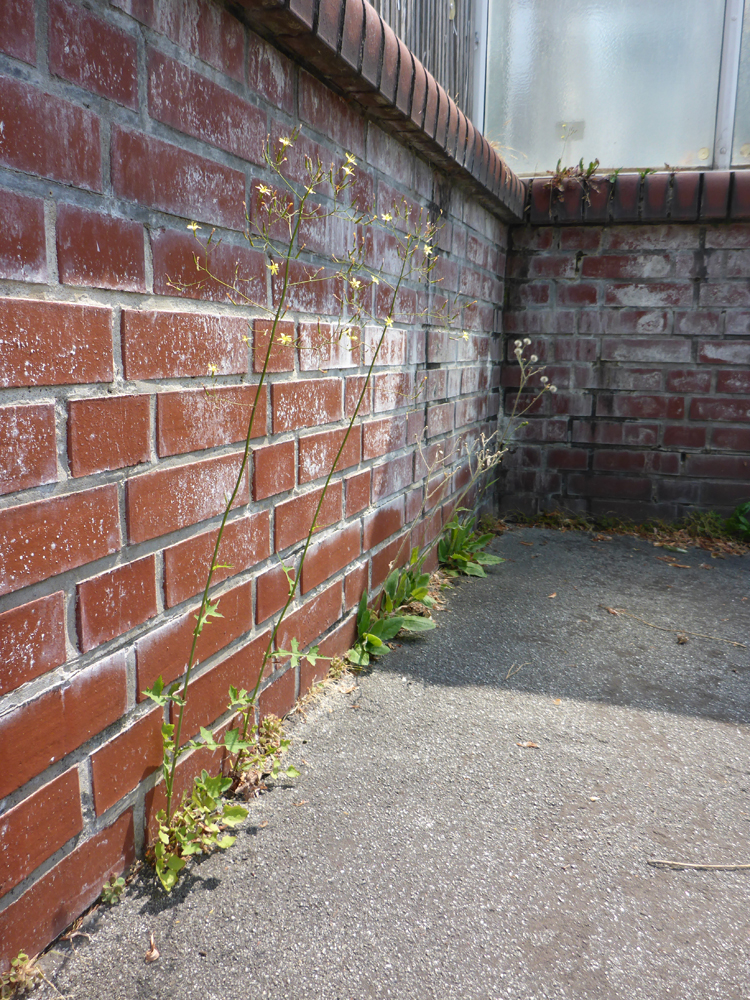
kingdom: Plantae
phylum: Tracheophyta
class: Magnoliopsida
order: Asterales
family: Asteraceae
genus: Mycelis
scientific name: Mycelis muralis
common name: Wall lettuce
